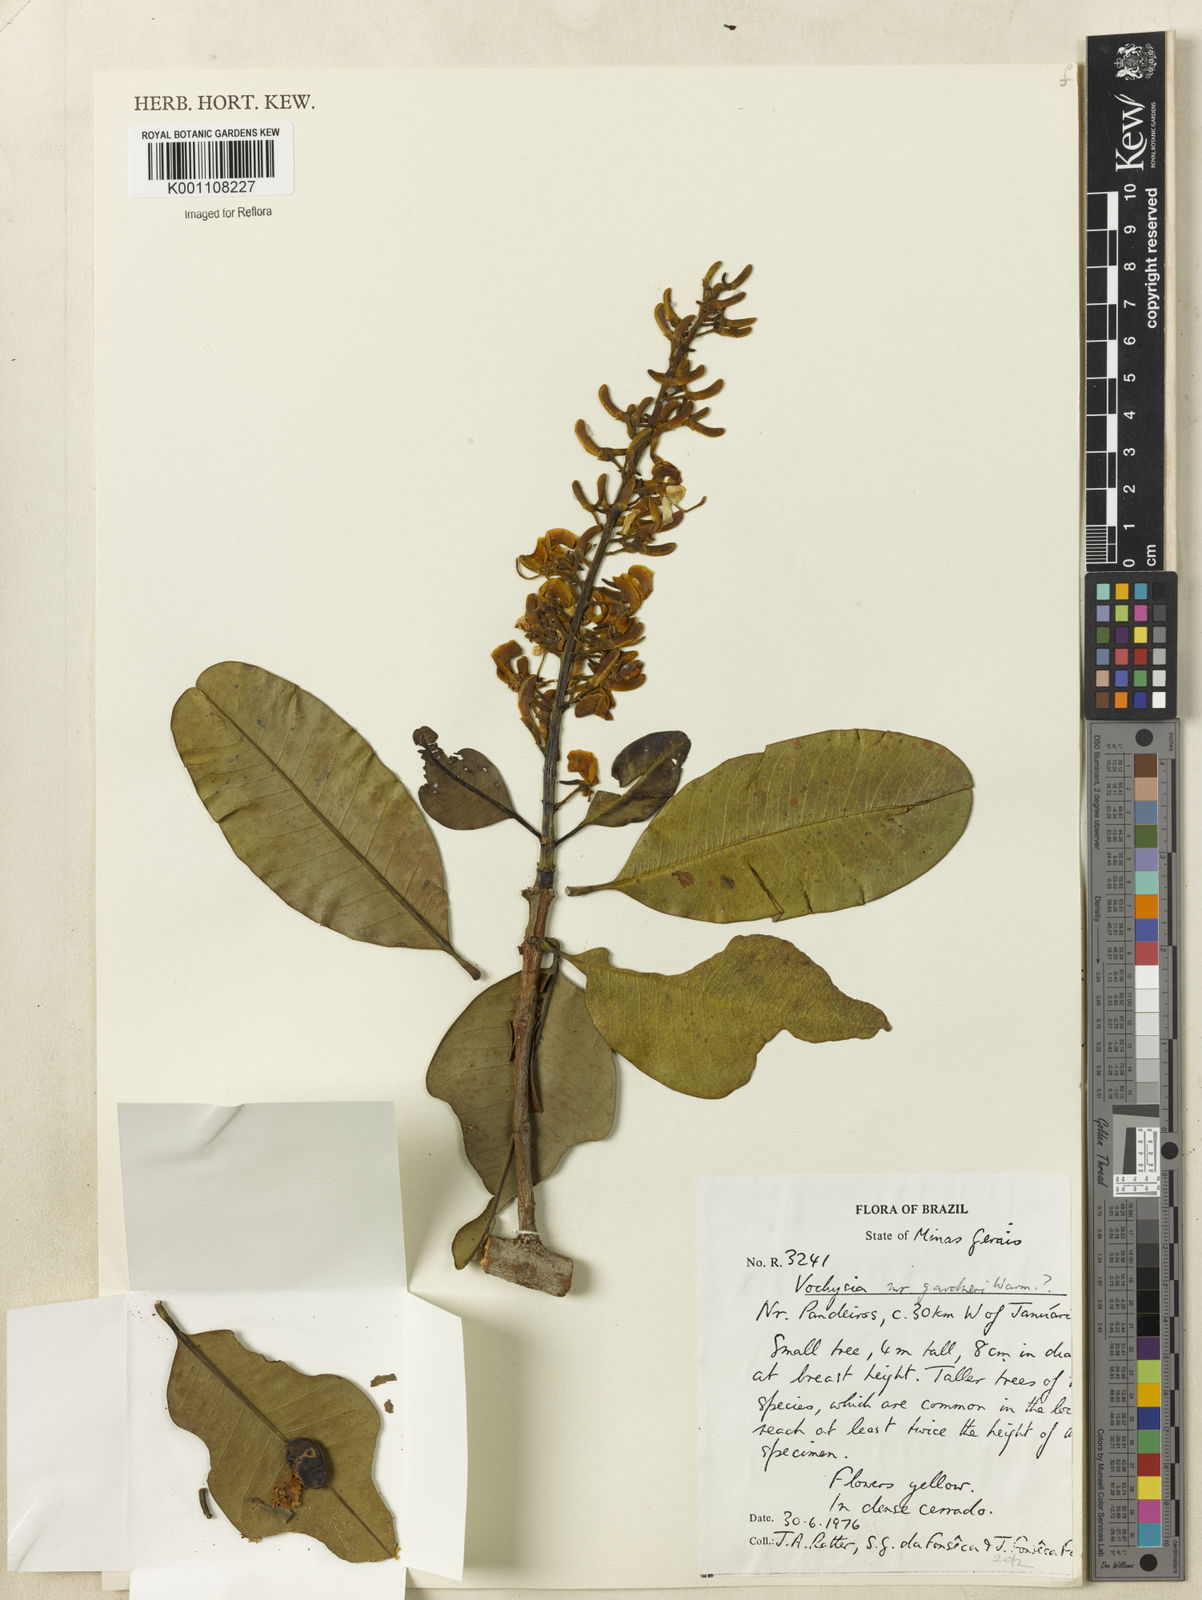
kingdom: Plantae
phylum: Tracheophyta
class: Magnoliopsida
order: Myrtales
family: Vochysiaceae
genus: Vochysia
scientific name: Vochysia gardneri
